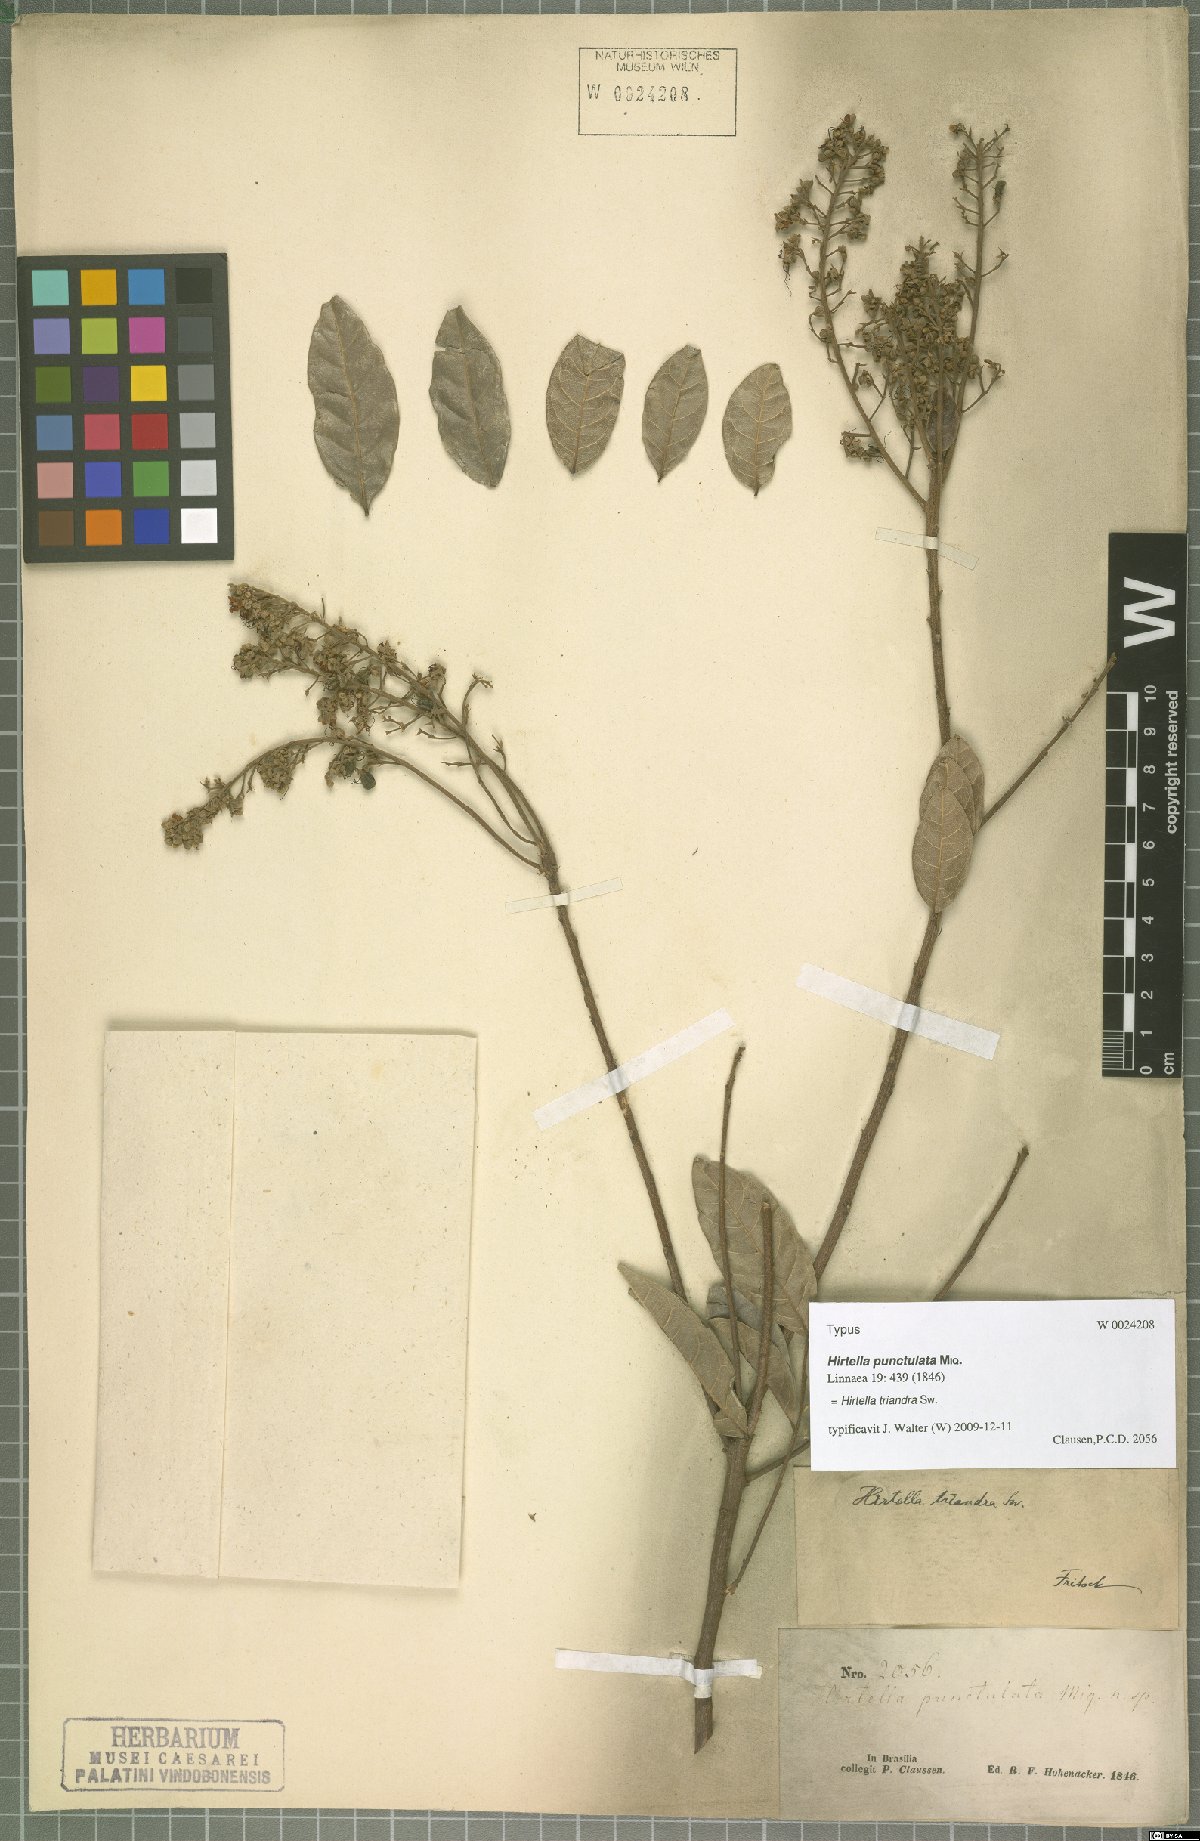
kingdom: Plantae
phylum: Tracheophyta
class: Magnoliopsida
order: Malpighiales
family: Chrysobalanaceae
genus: Hirtella
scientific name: Hirtella triandra
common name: Hairy plum
